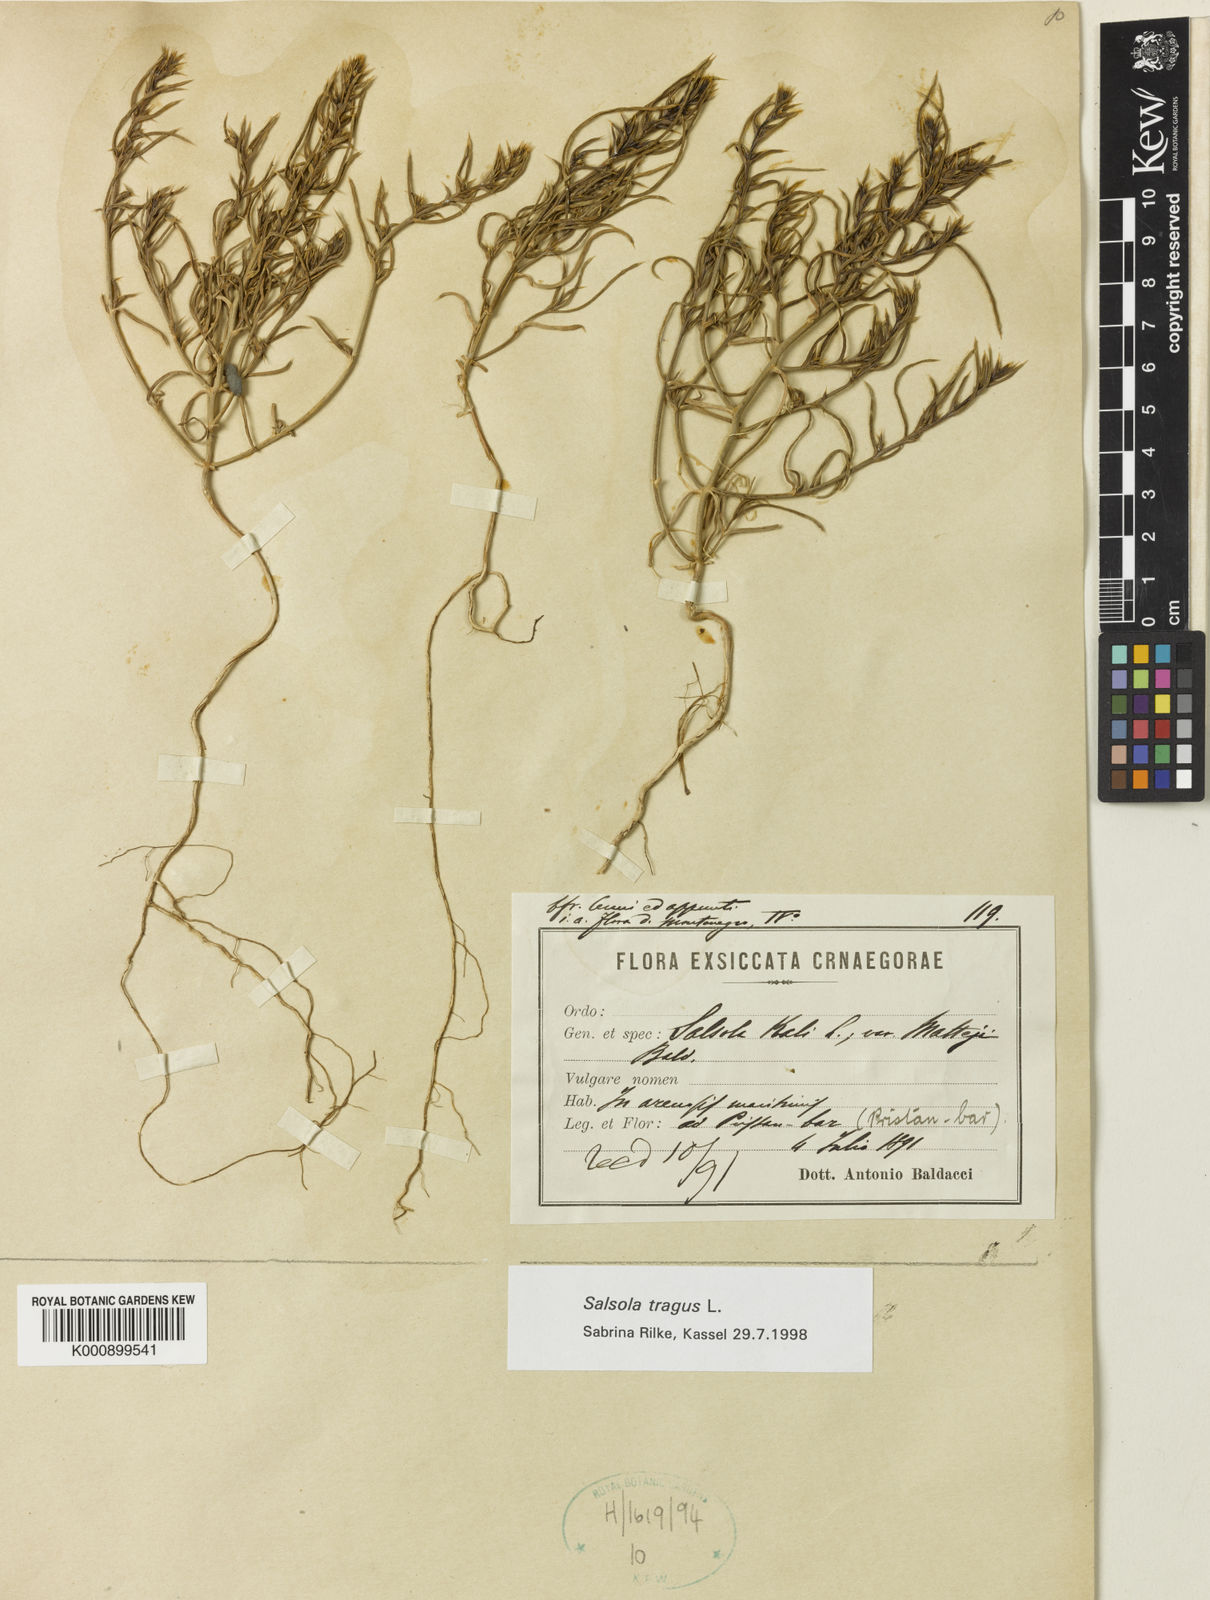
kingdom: Plantae
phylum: Tracheophyta
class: Magnoliopsida
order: Caryophyllales
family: Amaranthaceae
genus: Salsola
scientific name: Salsola kali
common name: Saltwort
